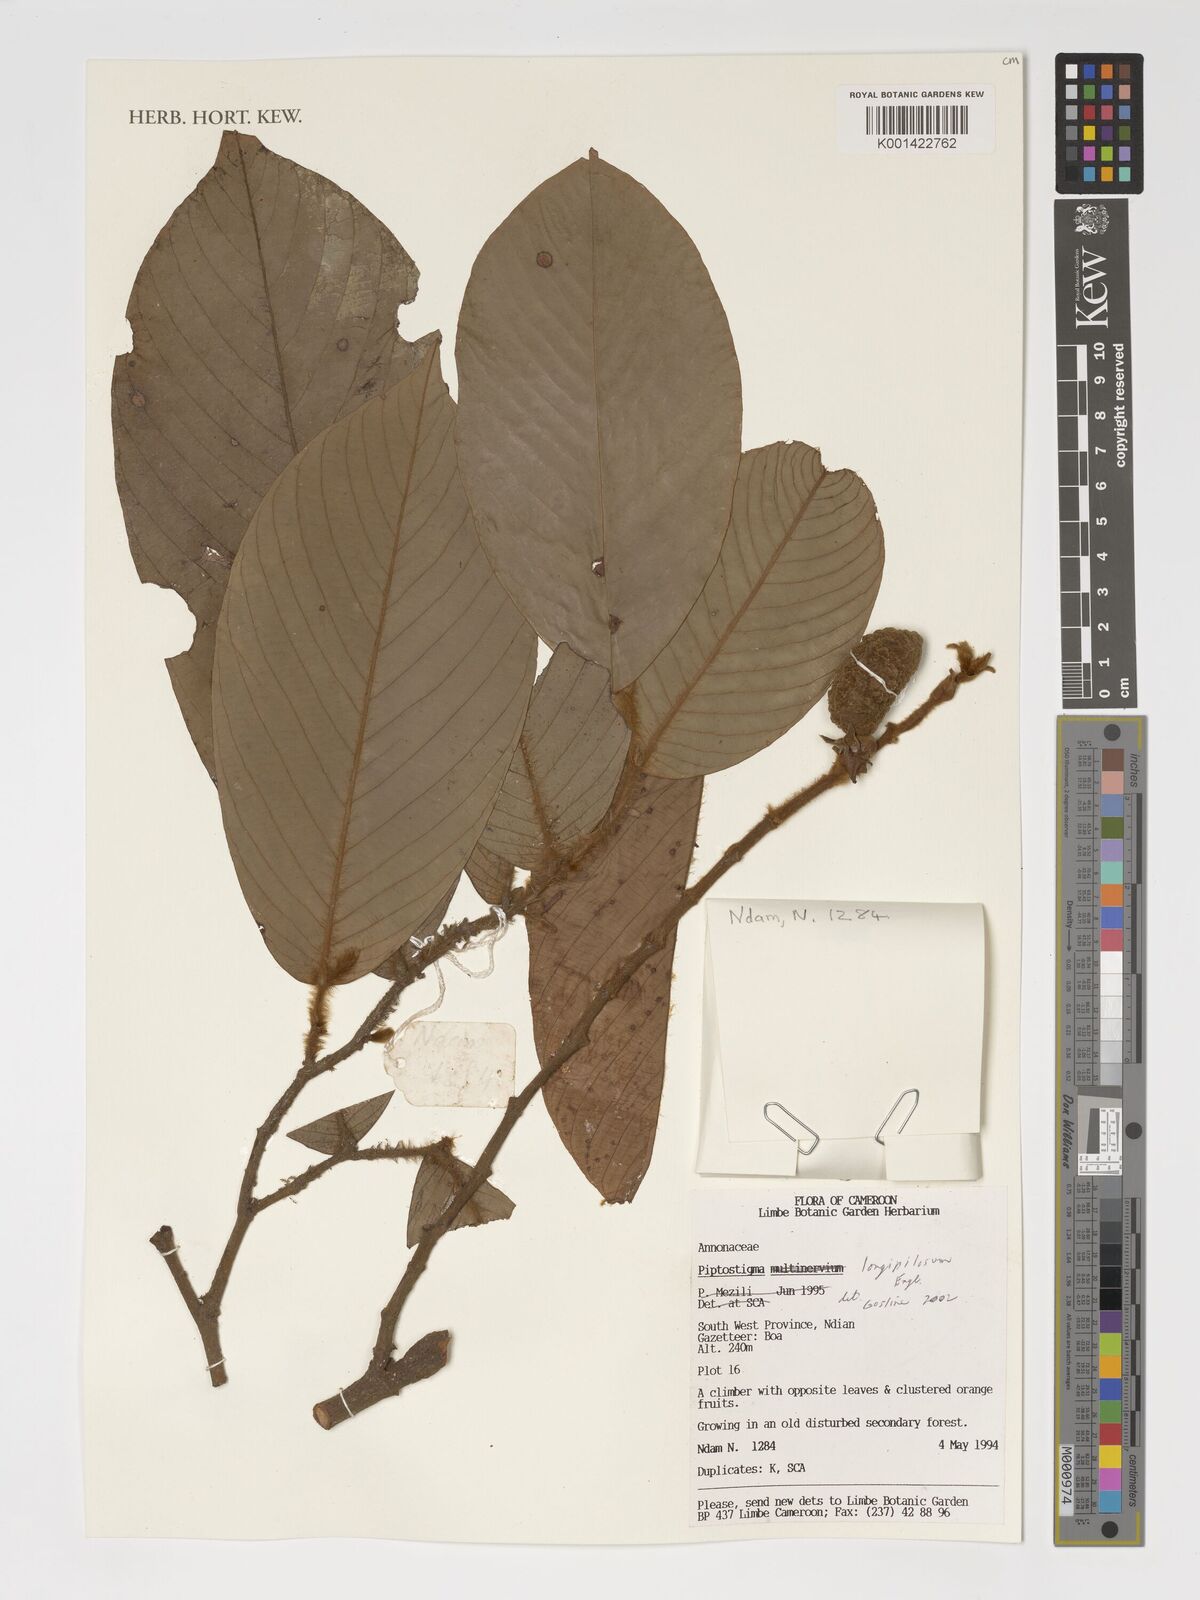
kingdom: Plantae
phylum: Tracheophyta
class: Magnoliopsida
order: Magnoliales
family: Annonaceae
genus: Piptostigma
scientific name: Piptostigma longepilosum
